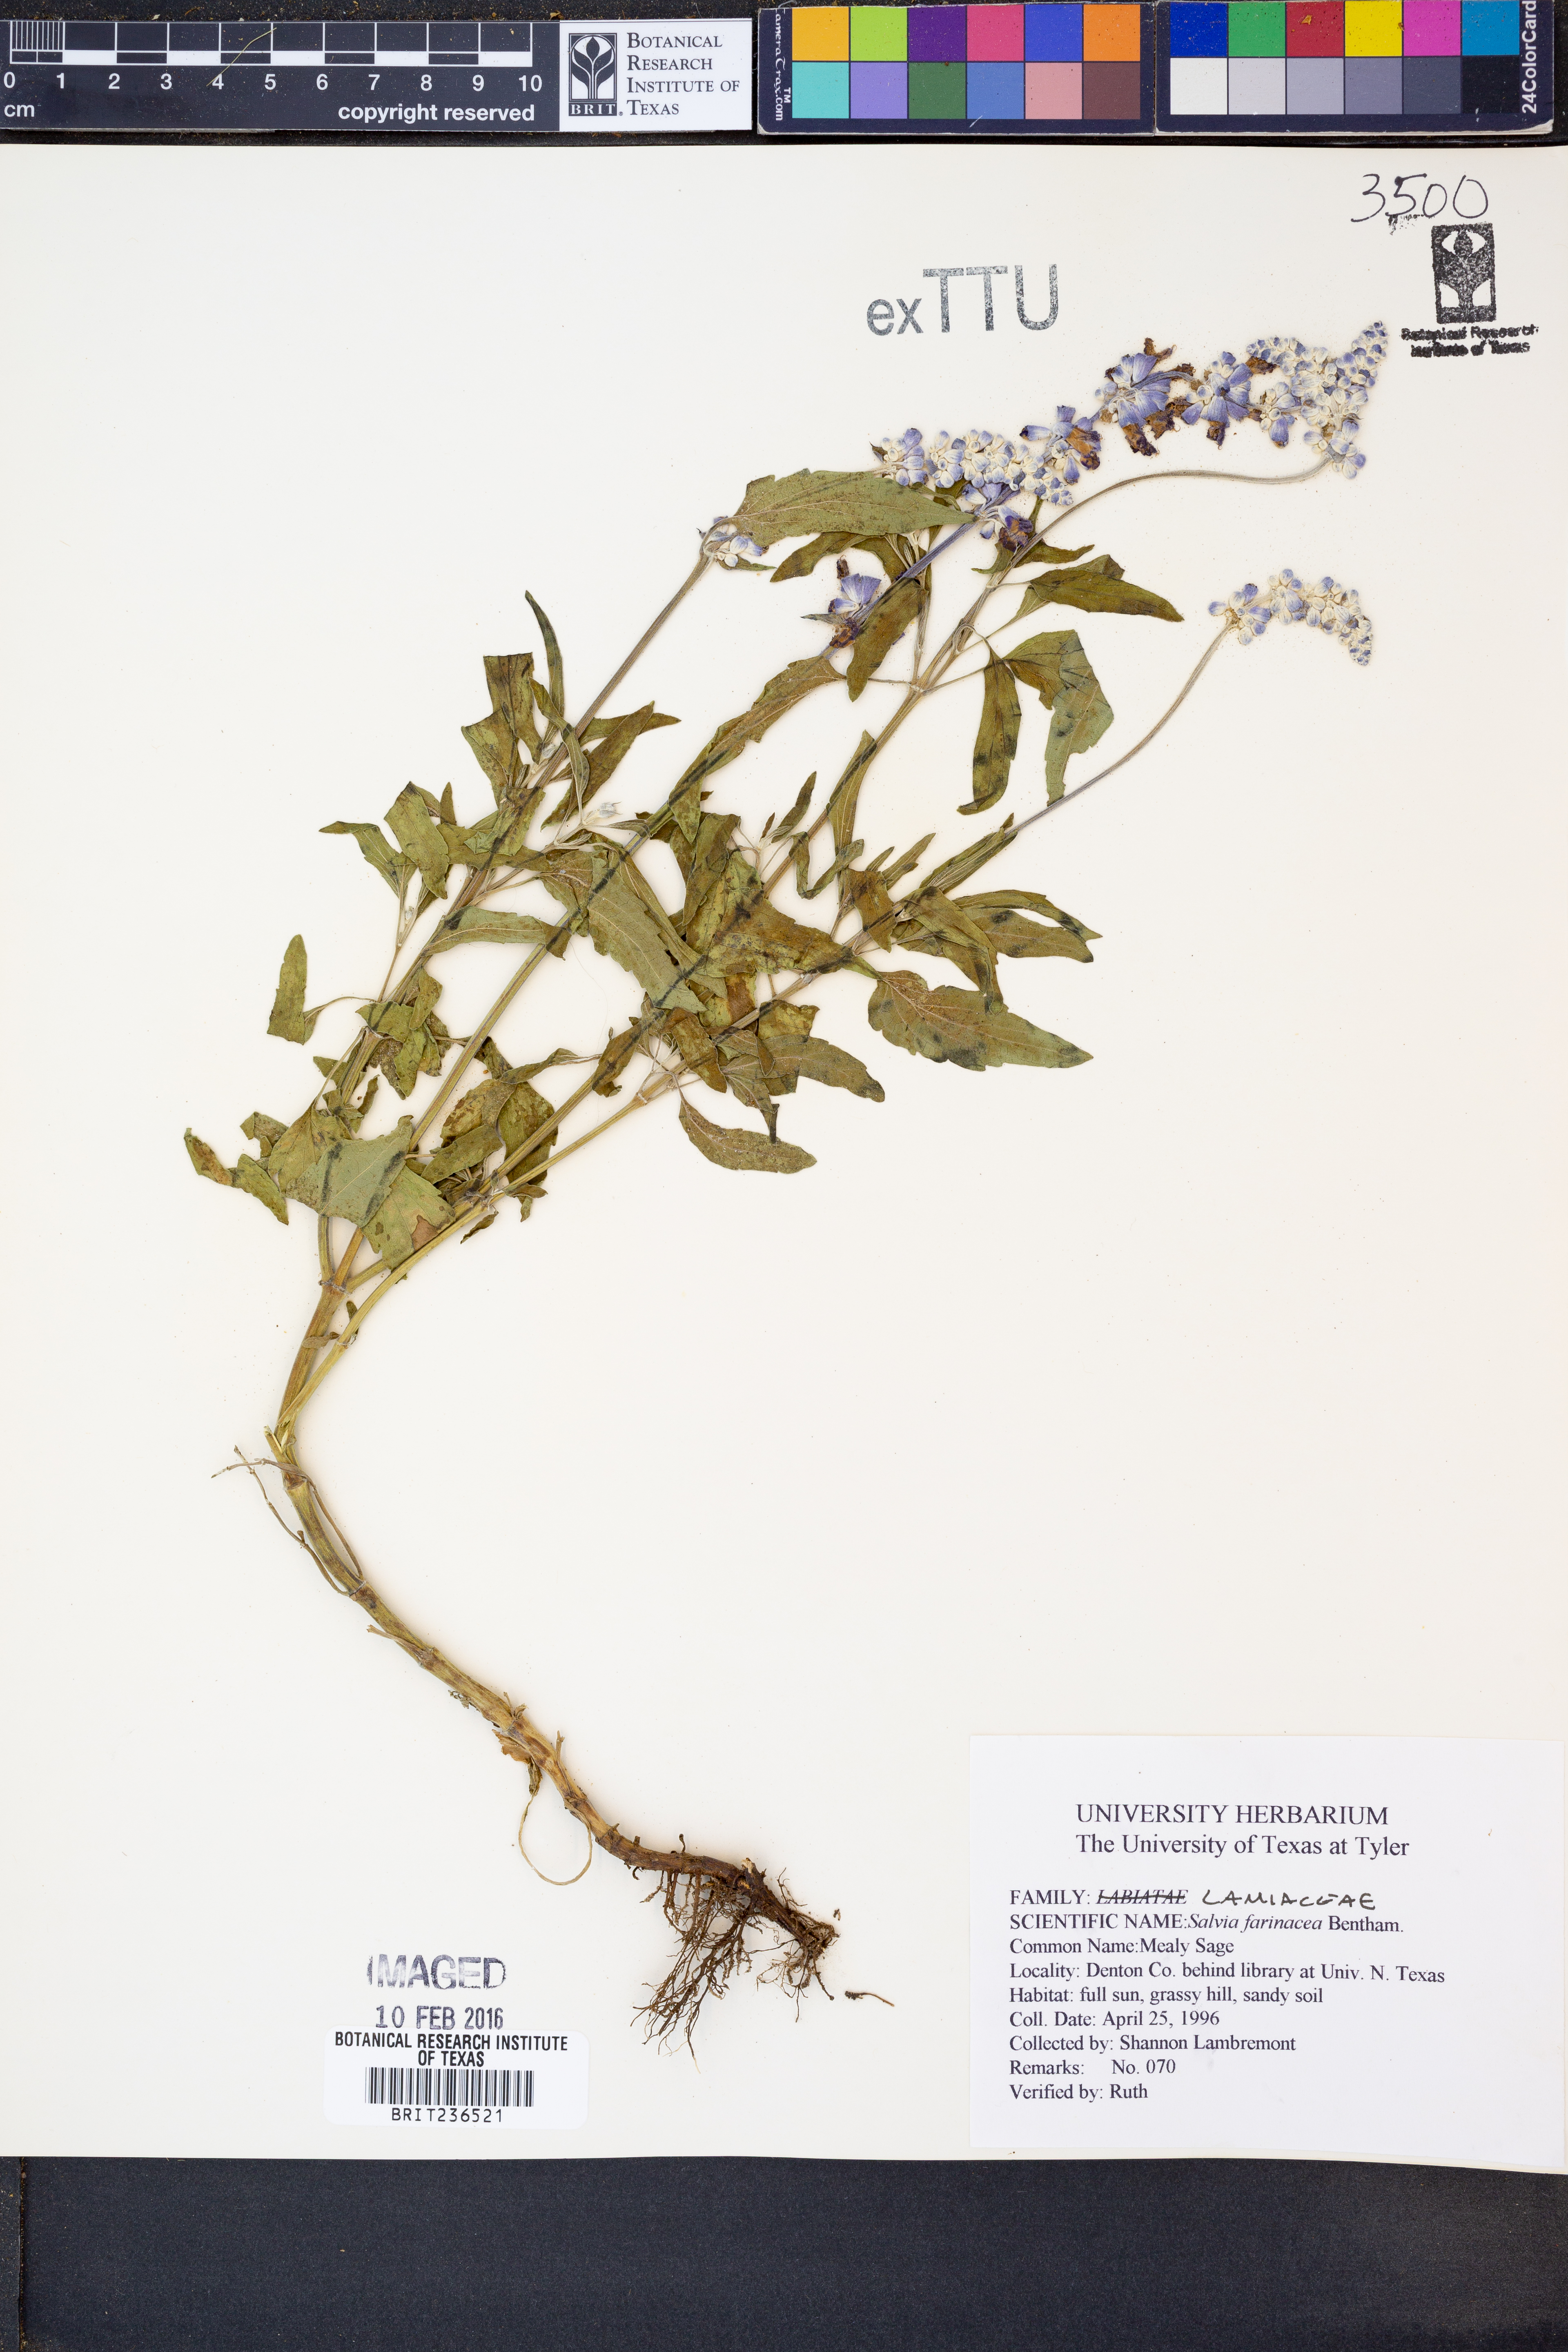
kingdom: Plantae
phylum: Tracheophyta
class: Magnoliopsida
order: Lamiales
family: Lamiaceae
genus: Salvia
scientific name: Salvia farinacea
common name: Mealy sage
